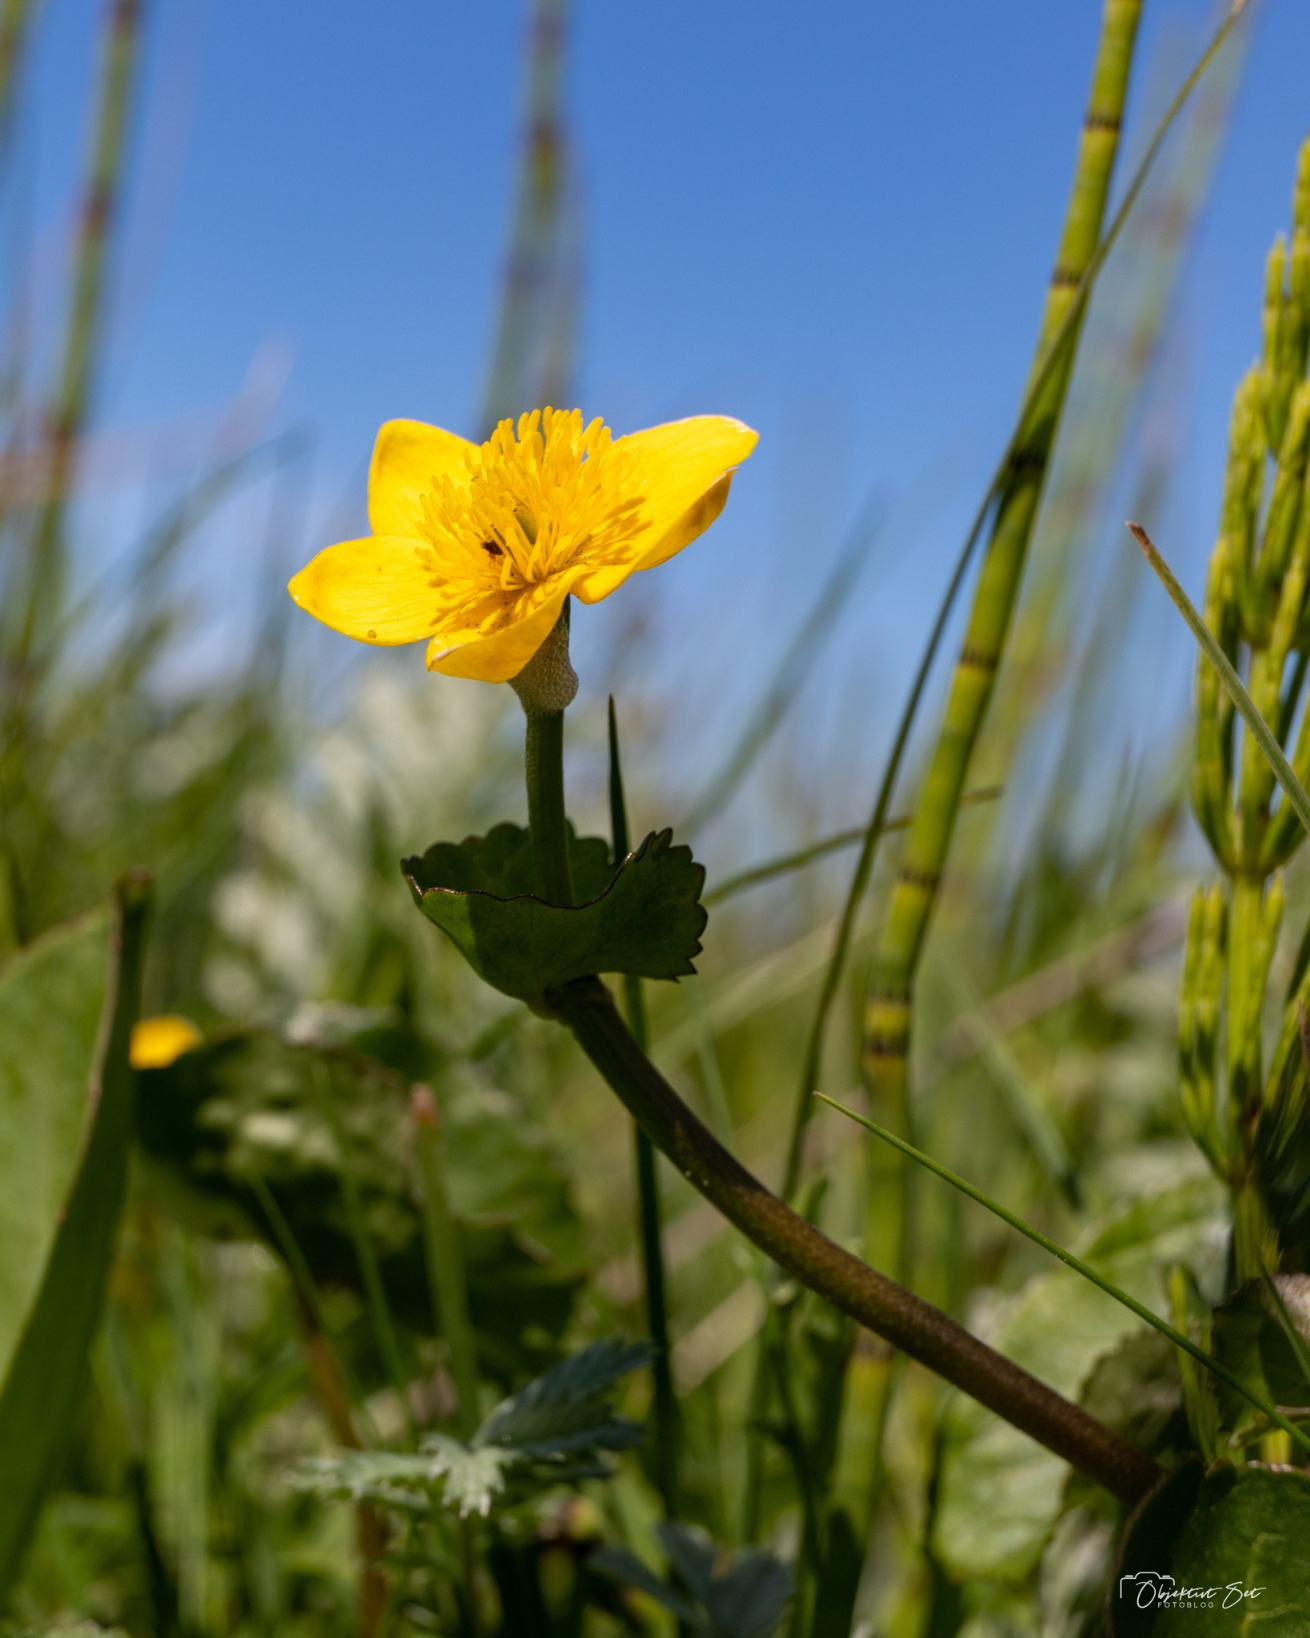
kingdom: Plantae
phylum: Tracheophyta
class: Magnoliopsida
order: Ranunculales
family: Ranunculaceae
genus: Caltha
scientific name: Caltha palustris
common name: Eng-kabbeleje
